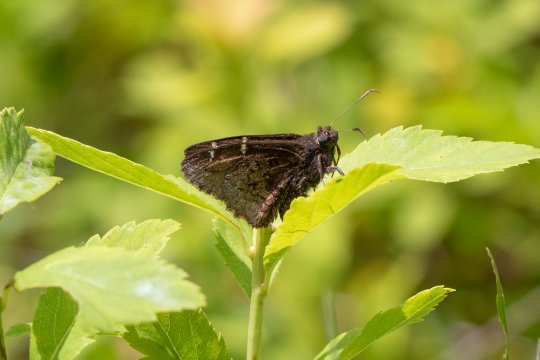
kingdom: Animalia
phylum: Arthropoda
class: Insecta
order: Lepidoptera
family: Hesperiidae
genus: Autochton
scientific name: Autochton
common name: Northern Cloudywing
